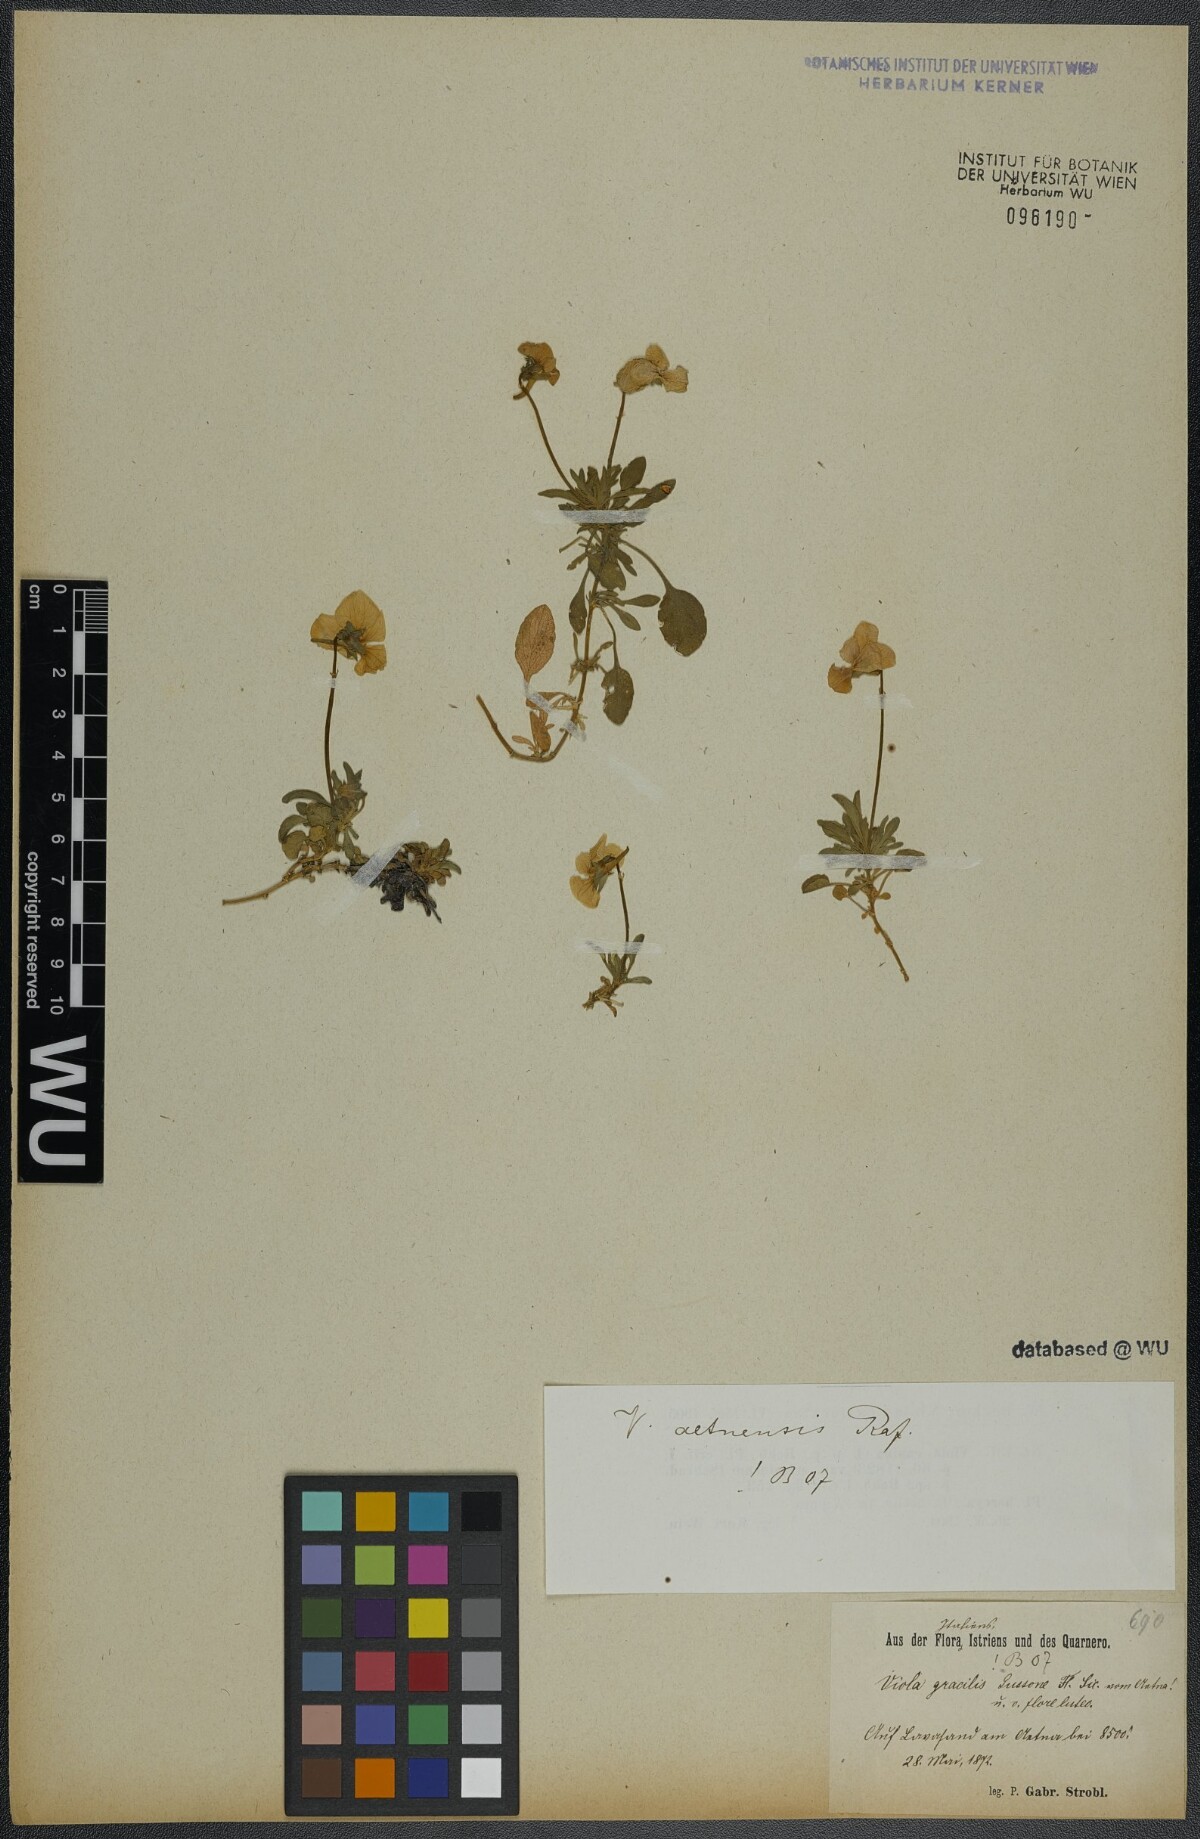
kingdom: Plantae
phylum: Tracheophyta
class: Magnoliopsida
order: Malpighiales
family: Violaceae
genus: Viola
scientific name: Viola aethnensis
